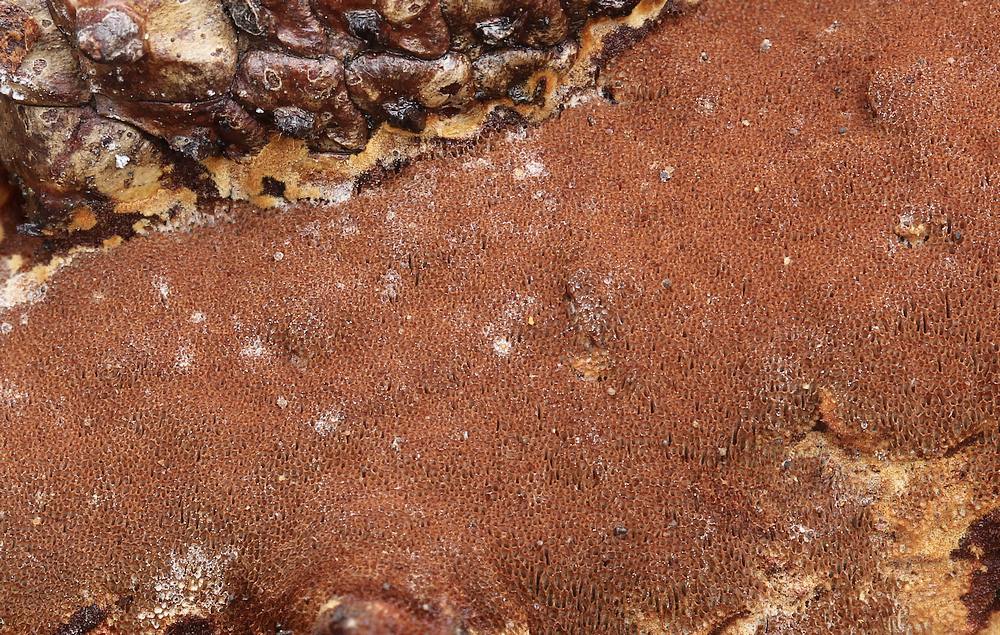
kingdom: Fungi
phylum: Basidiomycota
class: Agaricomycetes
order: Hymenochaetales
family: Hymenochaetaceae
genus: Fuscoporia
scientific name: Fuscoporia ferruginosa
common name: rustbrun ildporesvamp
